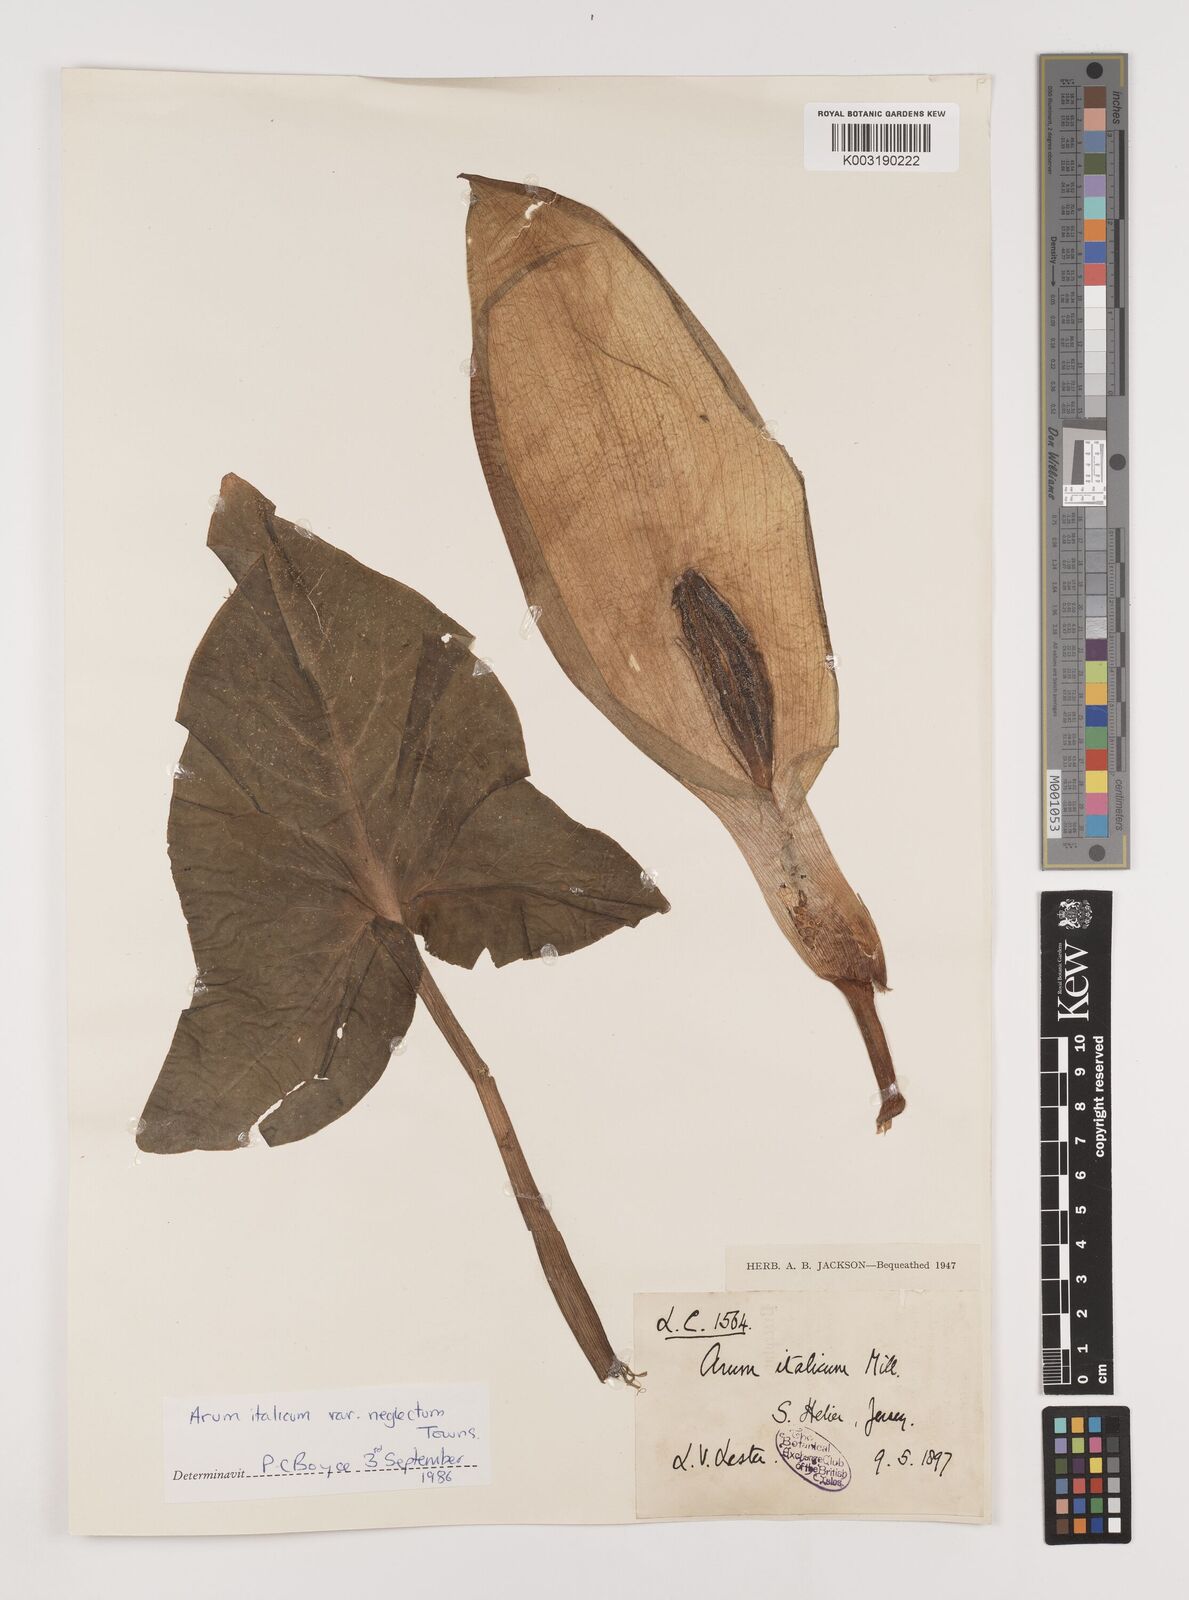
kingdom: Plantae
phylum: Tracheophyta
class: Liliopsida
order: Alismatales
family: Araceae
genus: Arum
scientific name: Arum italicum
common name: Italian lords-and-ladies
